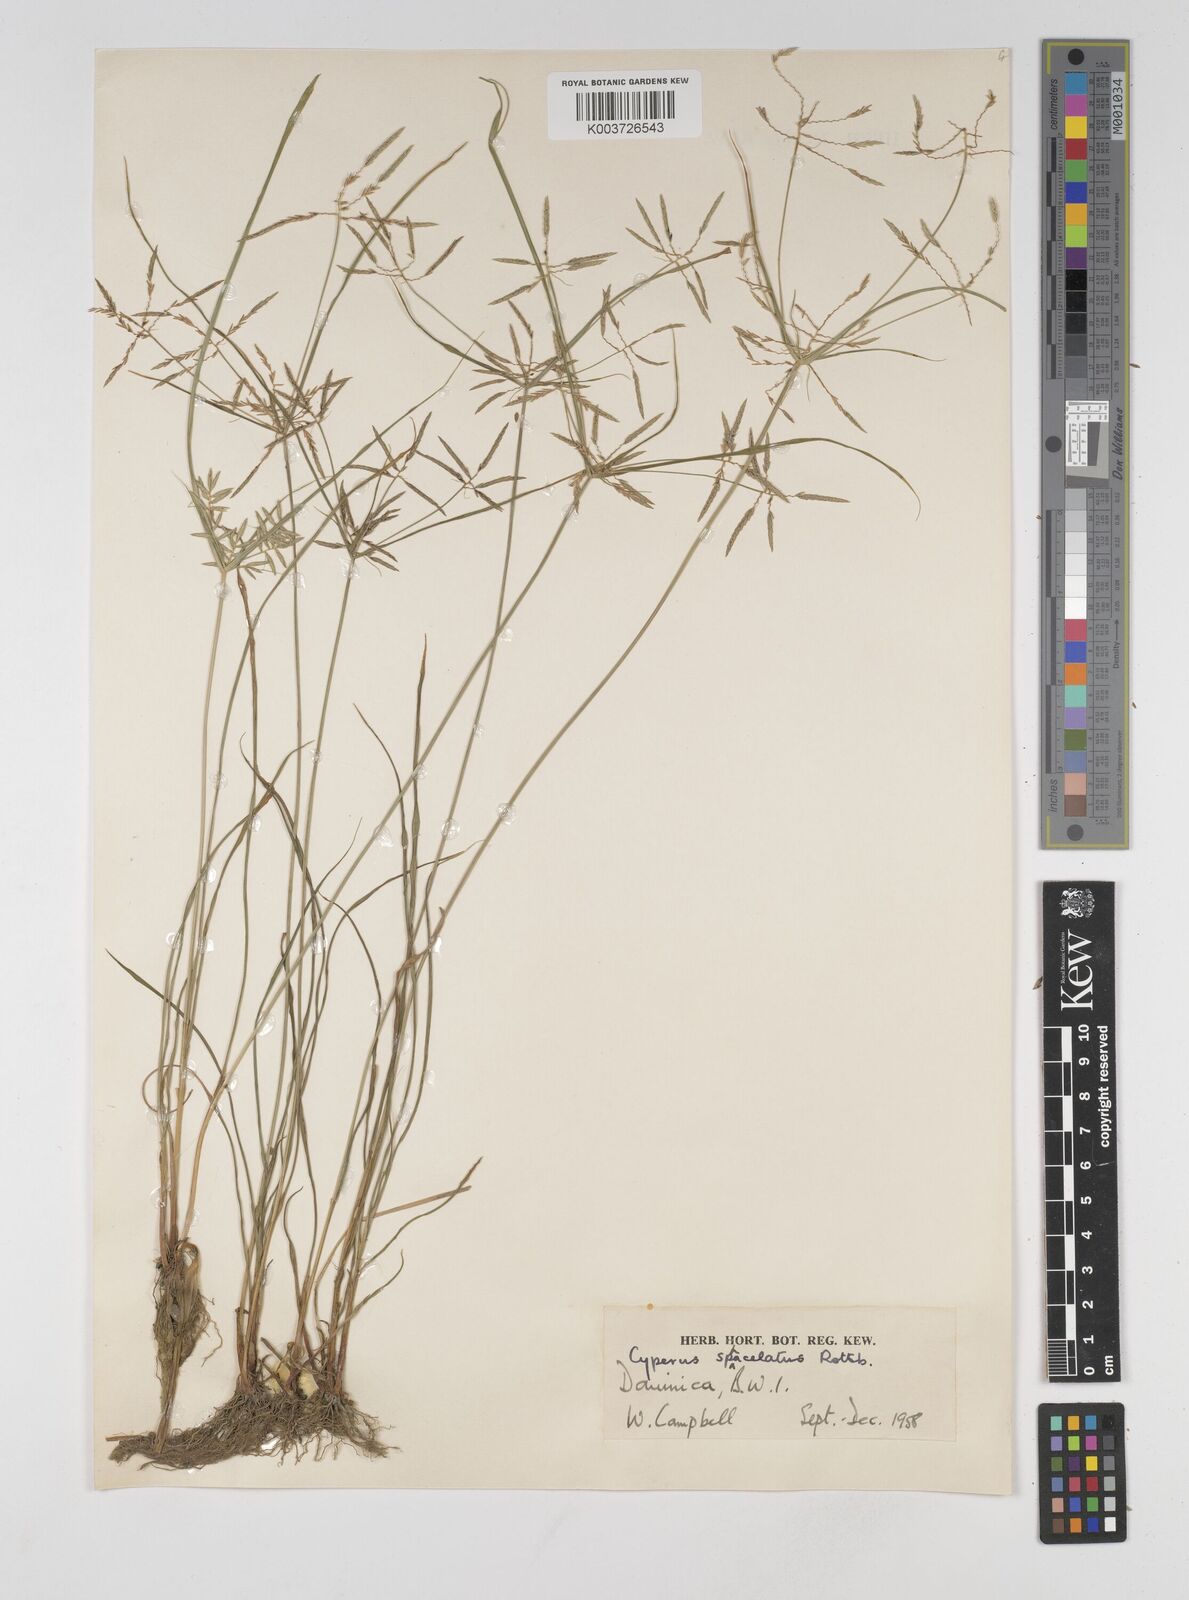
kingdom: Plantae
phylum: Tracheophyta
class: Liliopsida
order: Poales
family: Cyperaceae
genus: Cyperus
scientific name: Cyperus sphacelatus
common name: Roadside flatsedge
